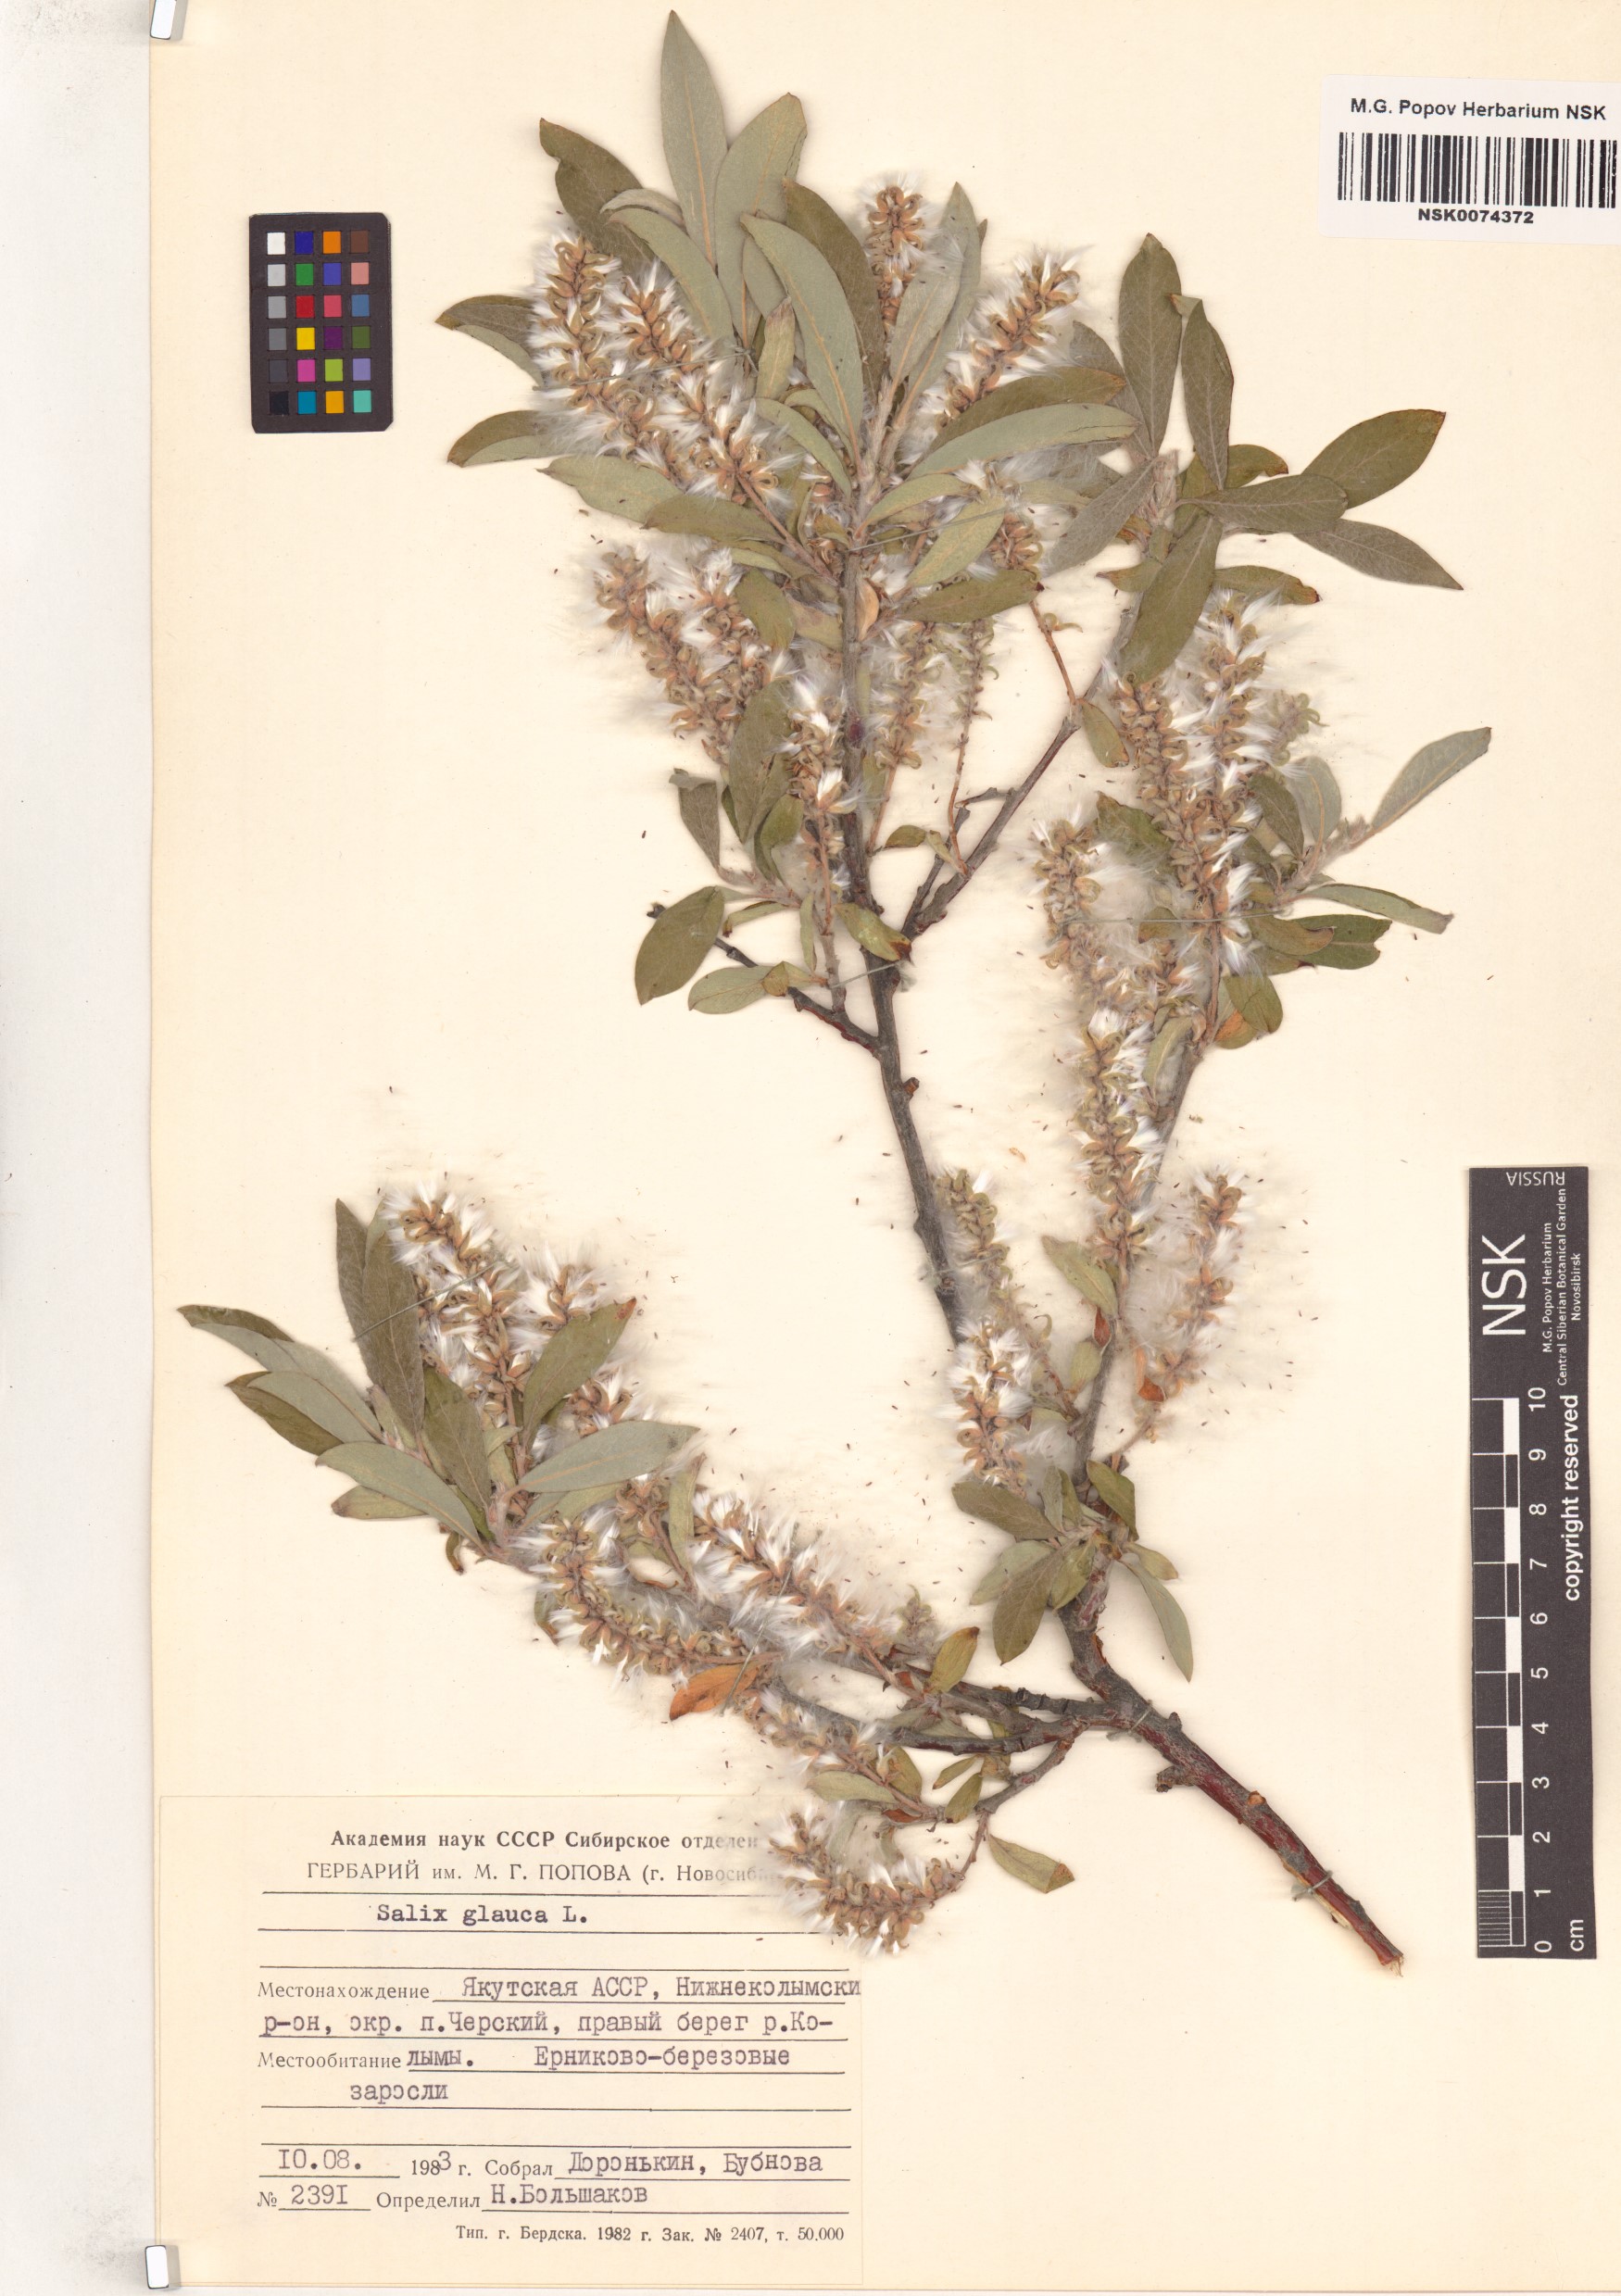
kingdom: Plantae
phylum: Tracheophyta
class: Magnoliopsida
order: Malpighiales
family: Salicaceae
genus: Salix
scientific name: Salix glauca
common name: Glaucous willow
